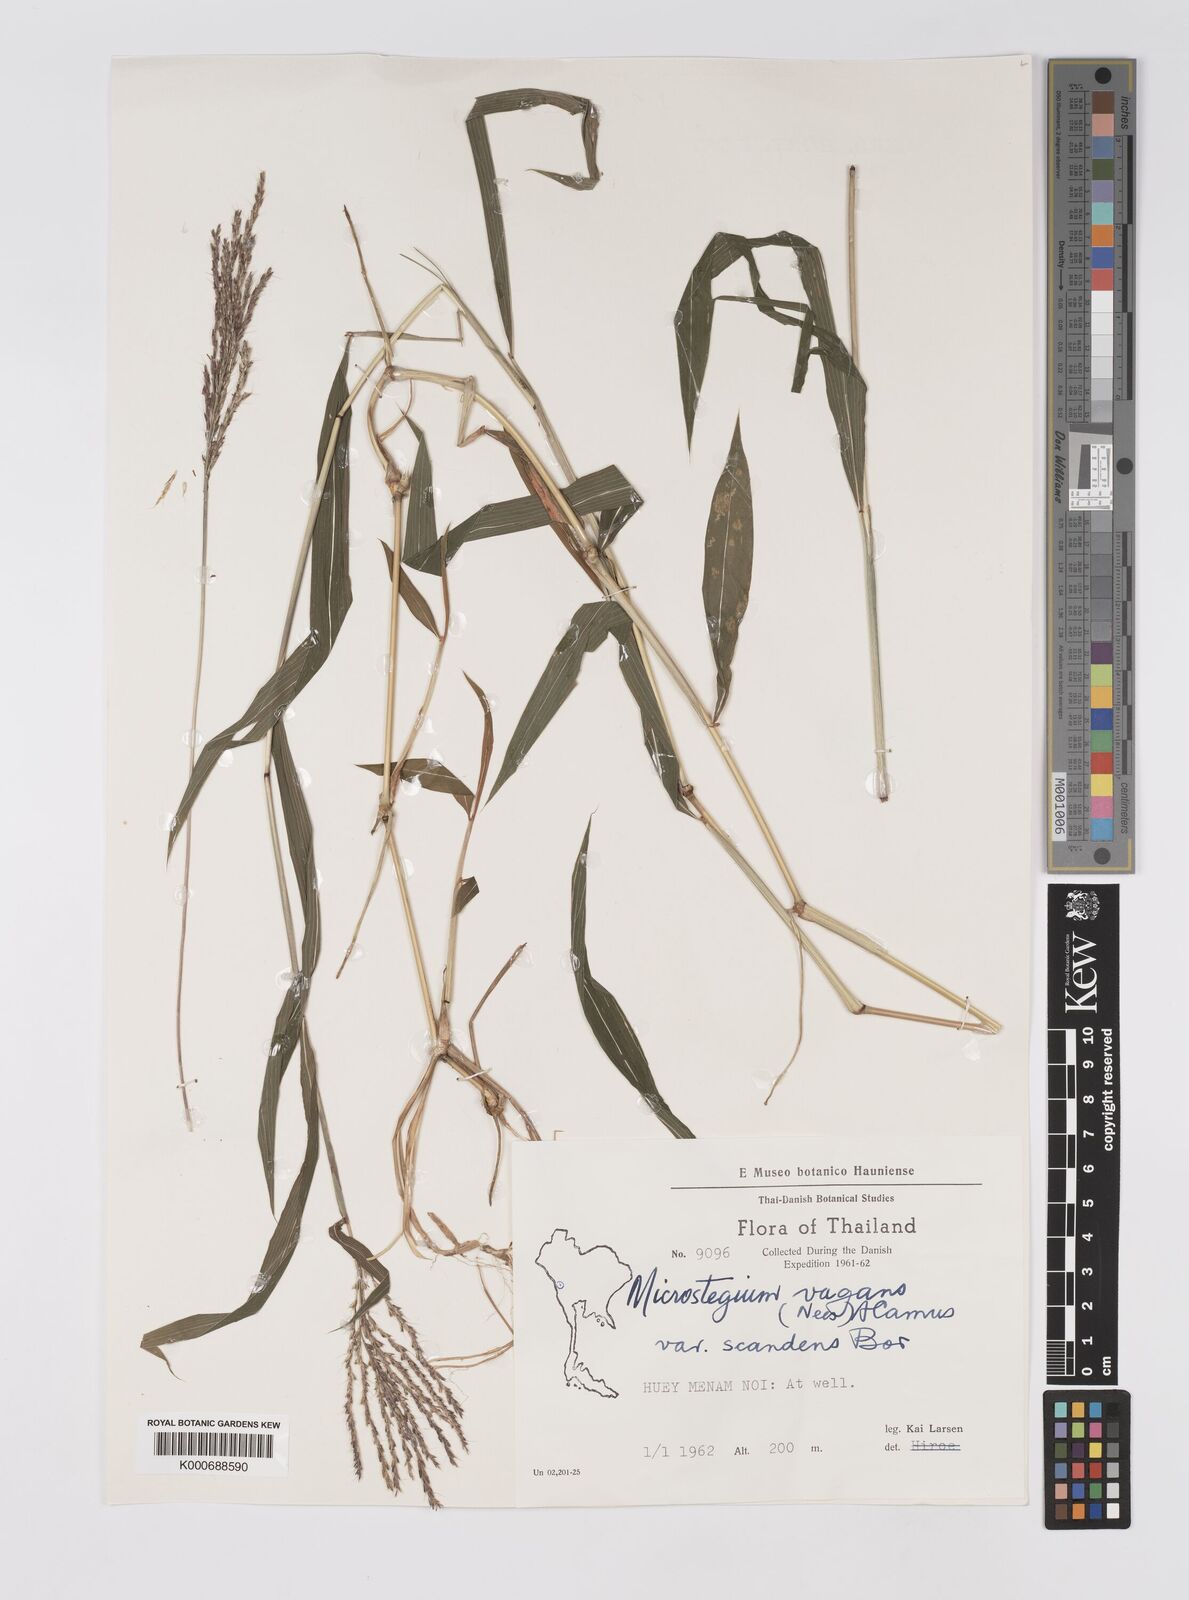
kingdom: Plantae
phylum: Tracheophyta
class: Liliopsida
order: Poales
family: Poaceae
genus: Microstegium
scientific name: Microstegium fasciculatum
